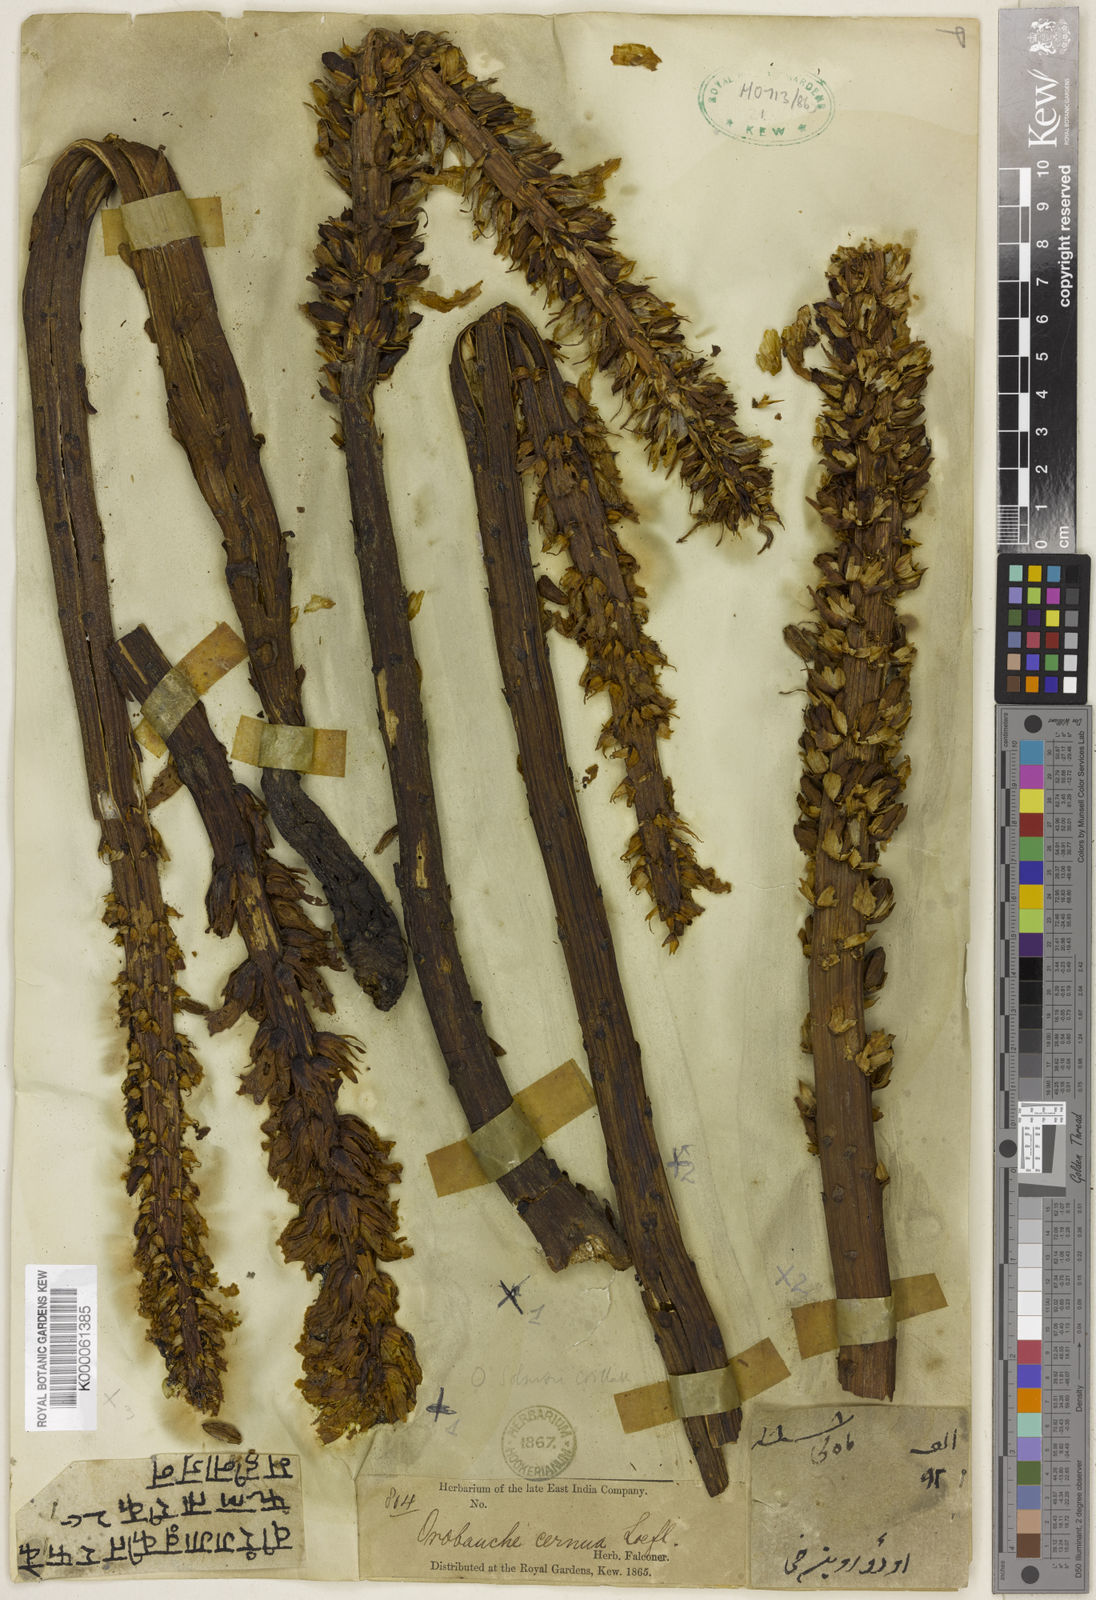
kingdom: Plantae
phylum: Tracheophyta
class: Magnoliopsida
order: Lamiales
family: Orobanchaceae
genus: Orobanche
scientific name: Orobanche
